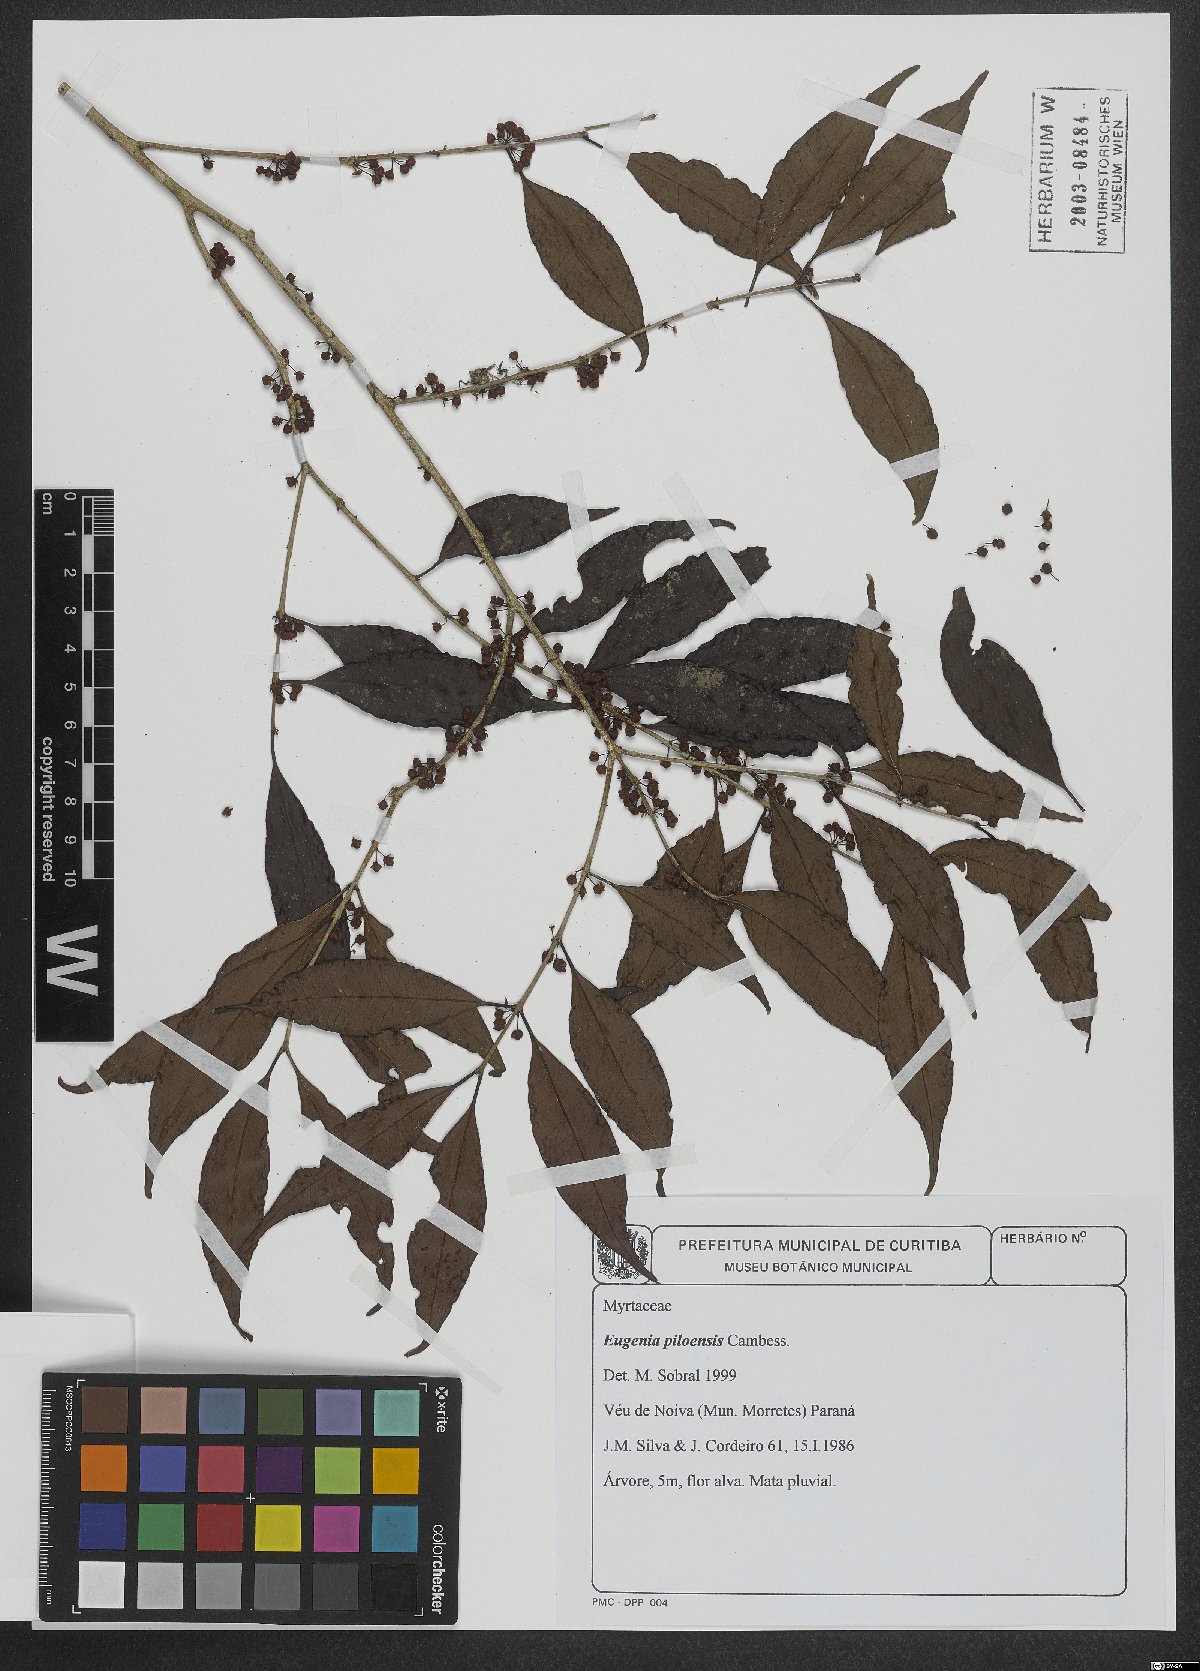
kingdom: Plantae
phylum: Tracheophyta
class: Magnoliopsida
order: Myrtales
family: Myrtaceae
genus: Eugenia
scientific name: Eugenia piloesis
